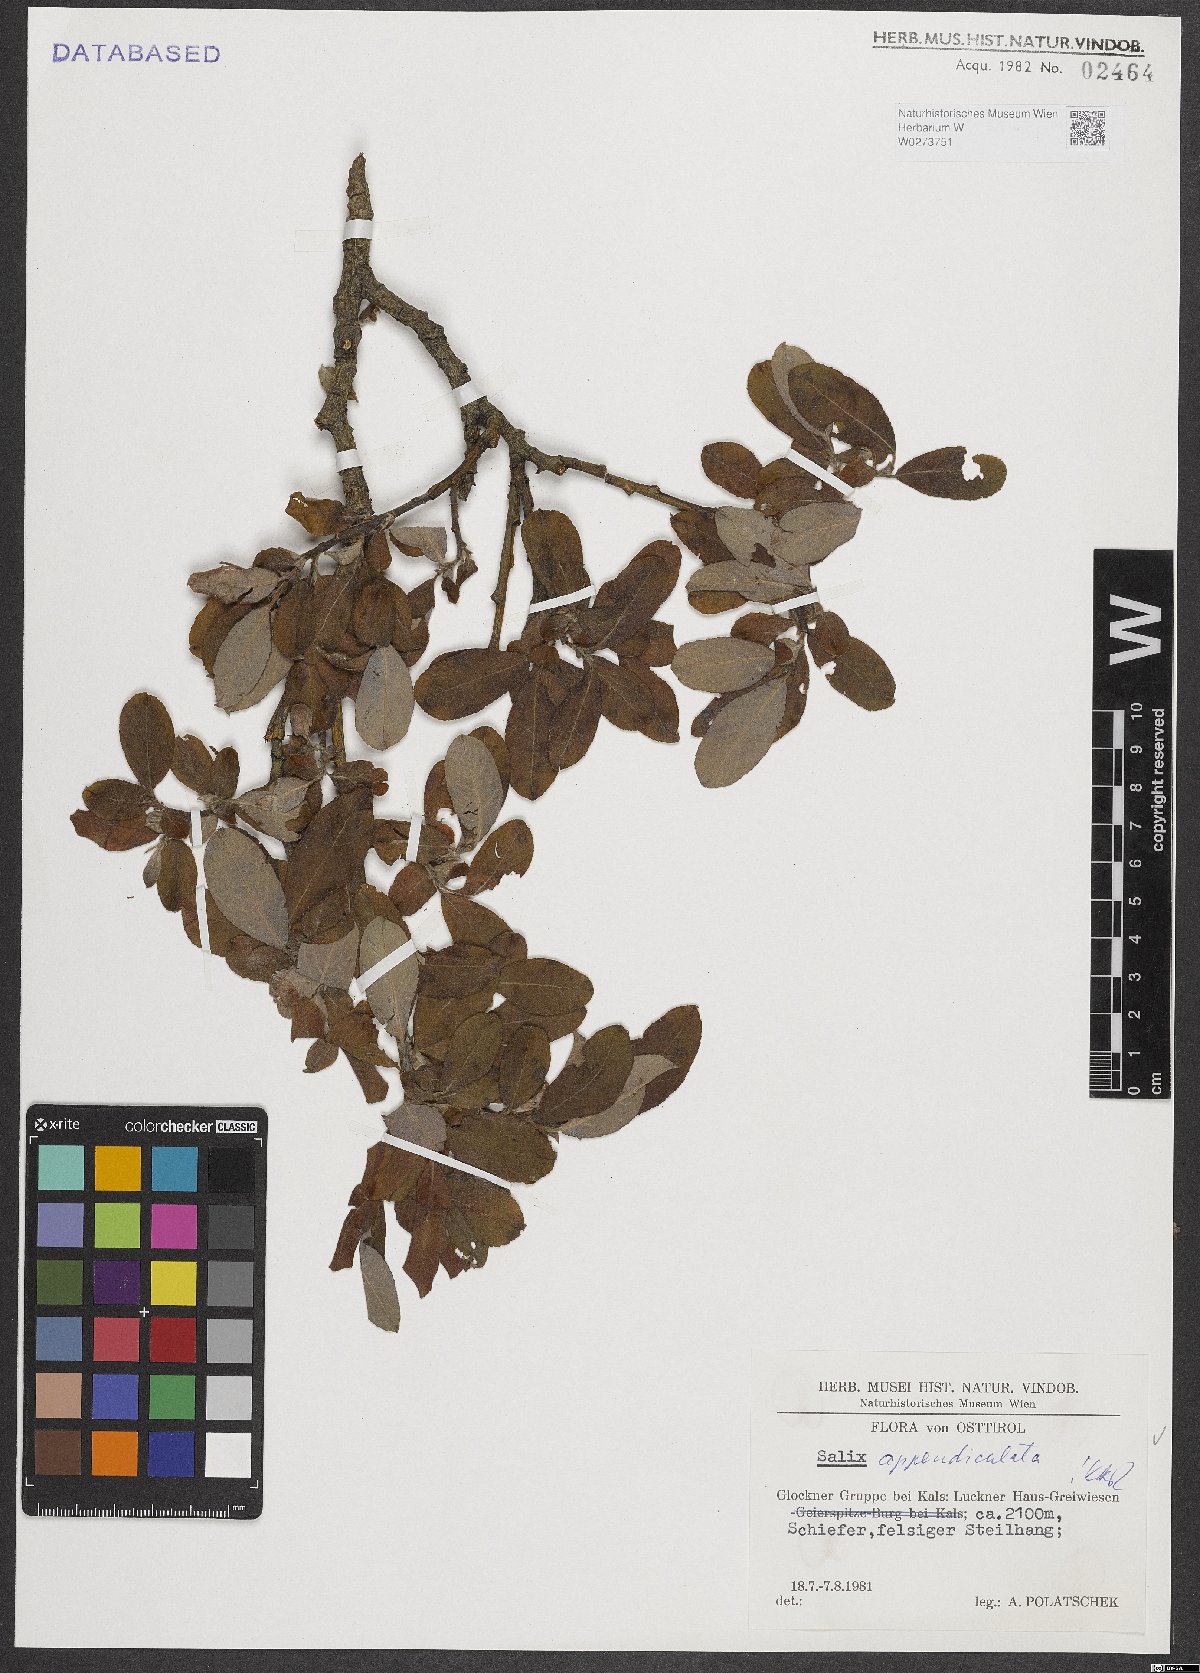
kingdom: Plantae
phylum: Tracheophyta
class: Magnoliopsida
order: Malpighiales
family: Salicaceae
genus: Salix
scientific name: Salix appendiculata
